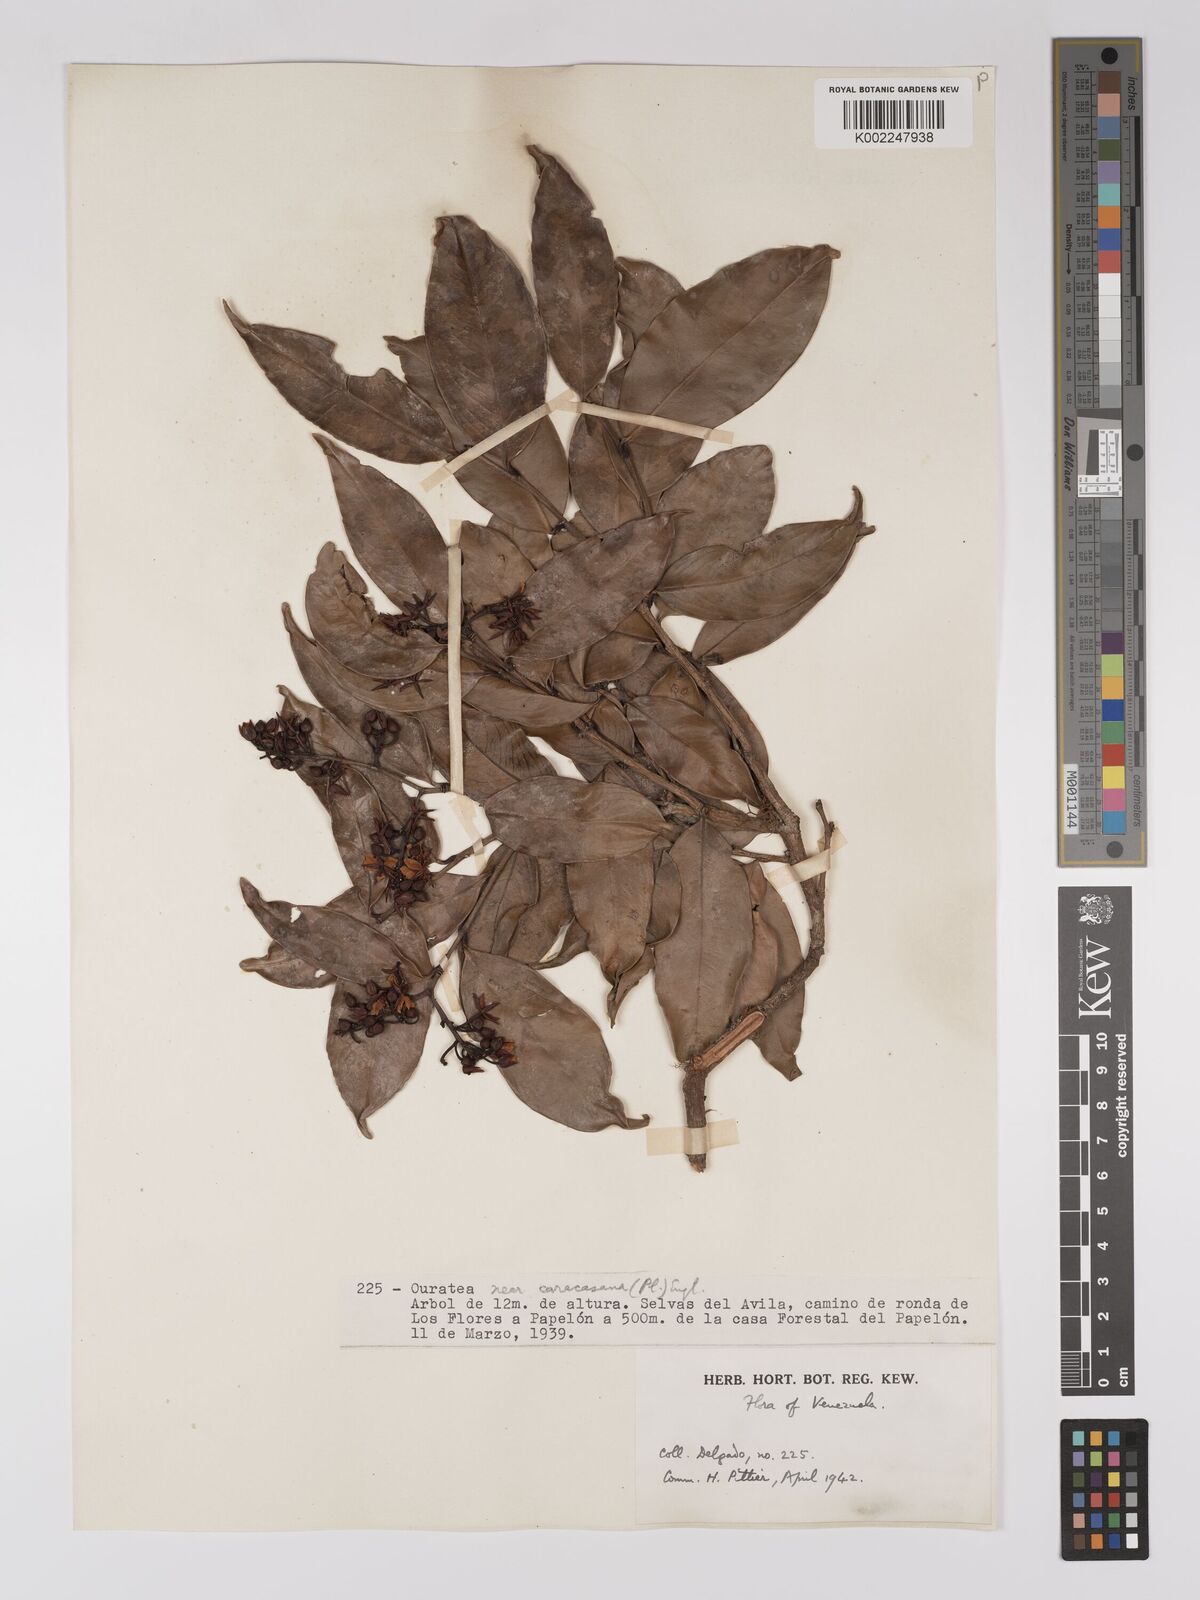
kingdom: Plantae
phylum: Tracheophyta
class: Magnoliopsida
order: Malpighiales
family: Ochnaceae
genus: Ouratea
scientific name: Ouratea caracasana
